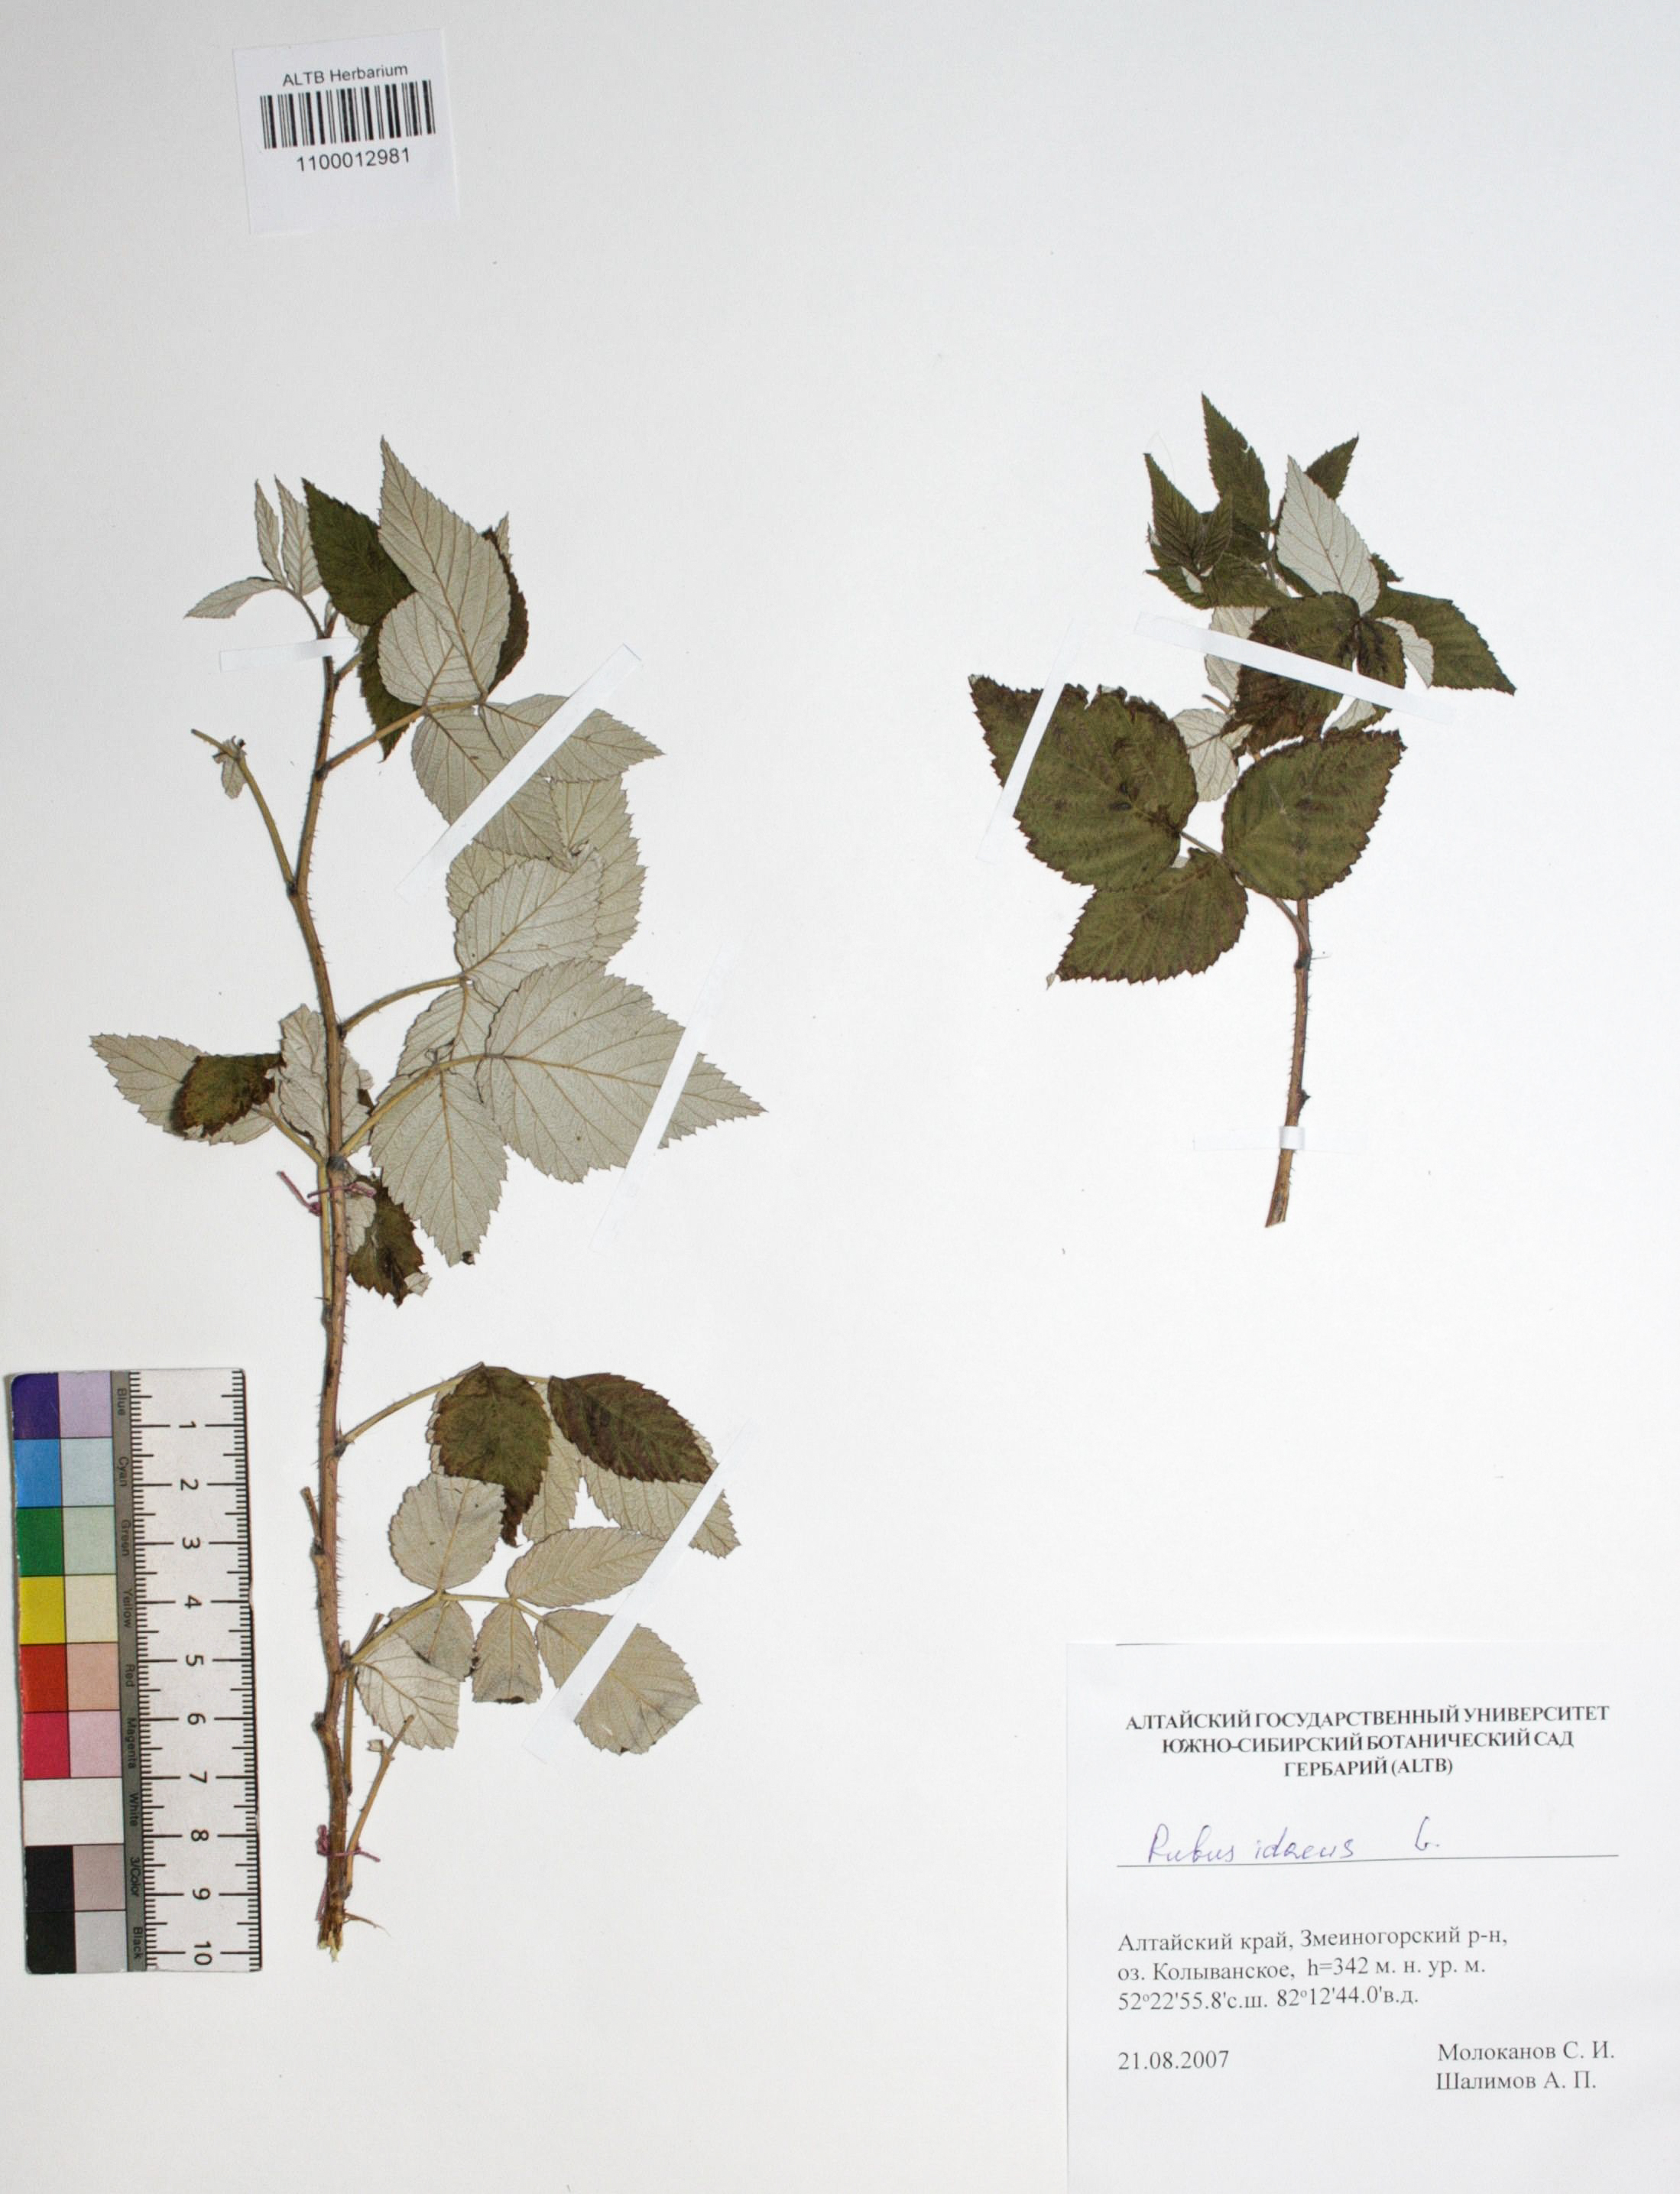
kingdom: Plantae
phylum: Tracheophyta
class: Magnoliopsida
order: Rosales
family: Rosaceae
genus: Rubus
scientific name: Rubus idaeus
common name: Raspberry
